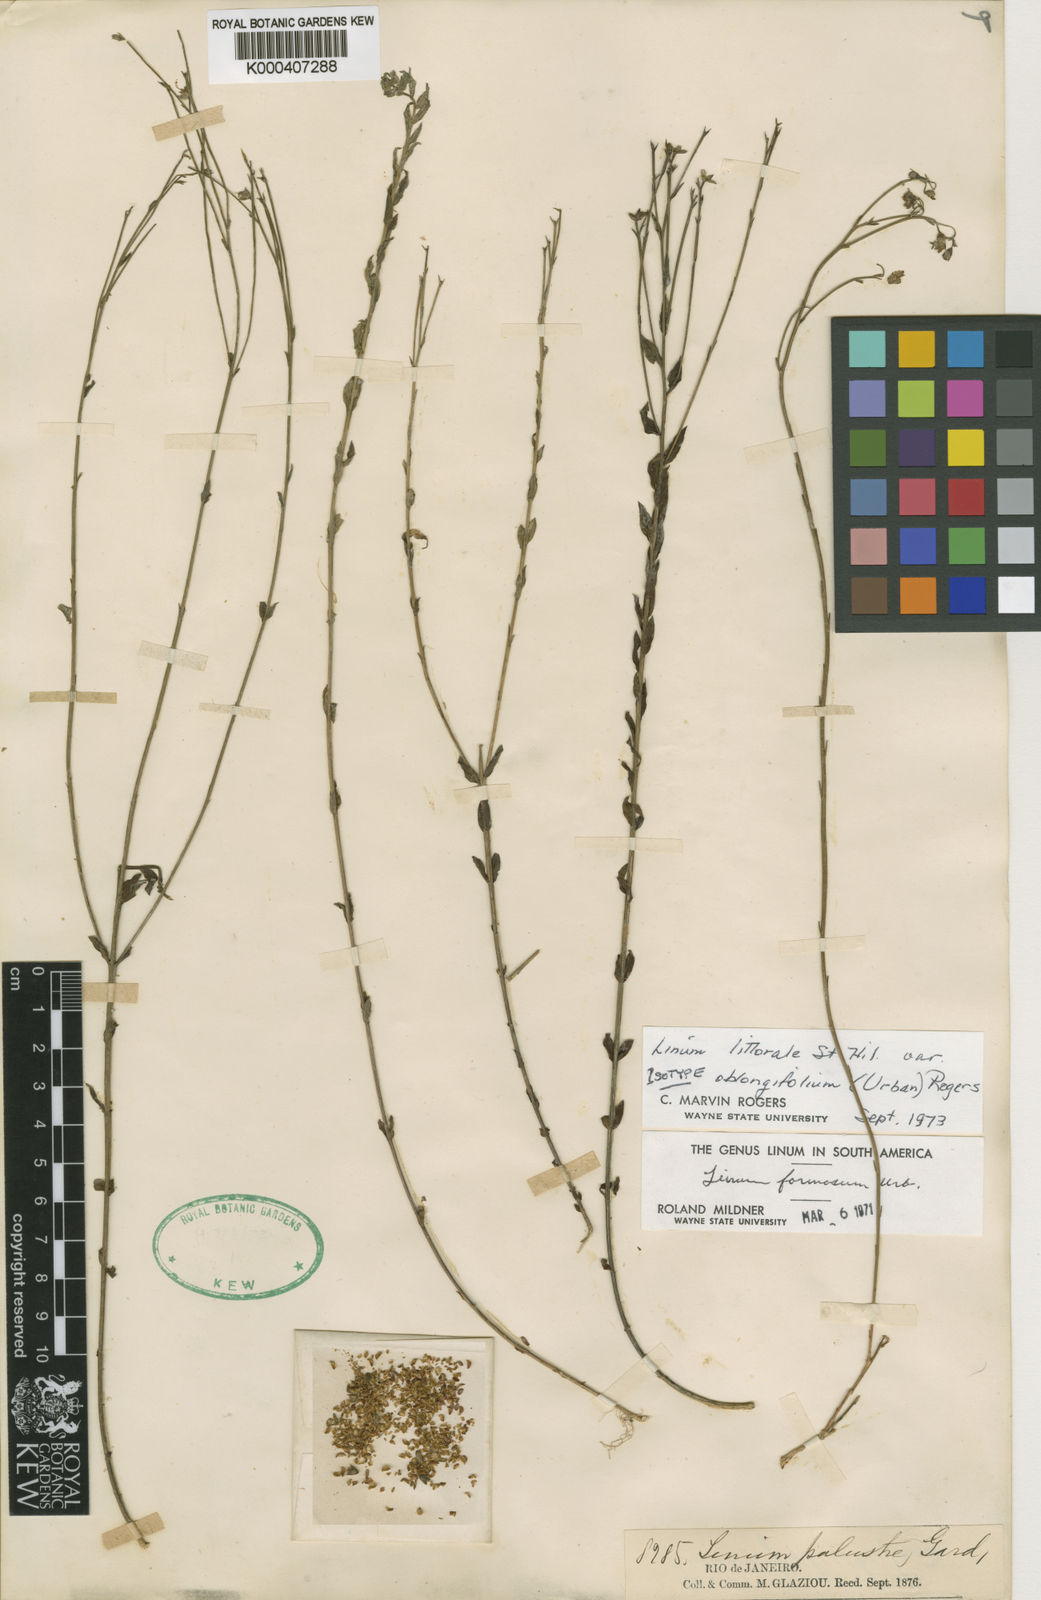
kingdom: Plantae
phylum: Tracheophyta
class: Magnoliopsida
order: Malpighiales
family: Linaceae
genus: Linum
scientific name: Linum littorale
